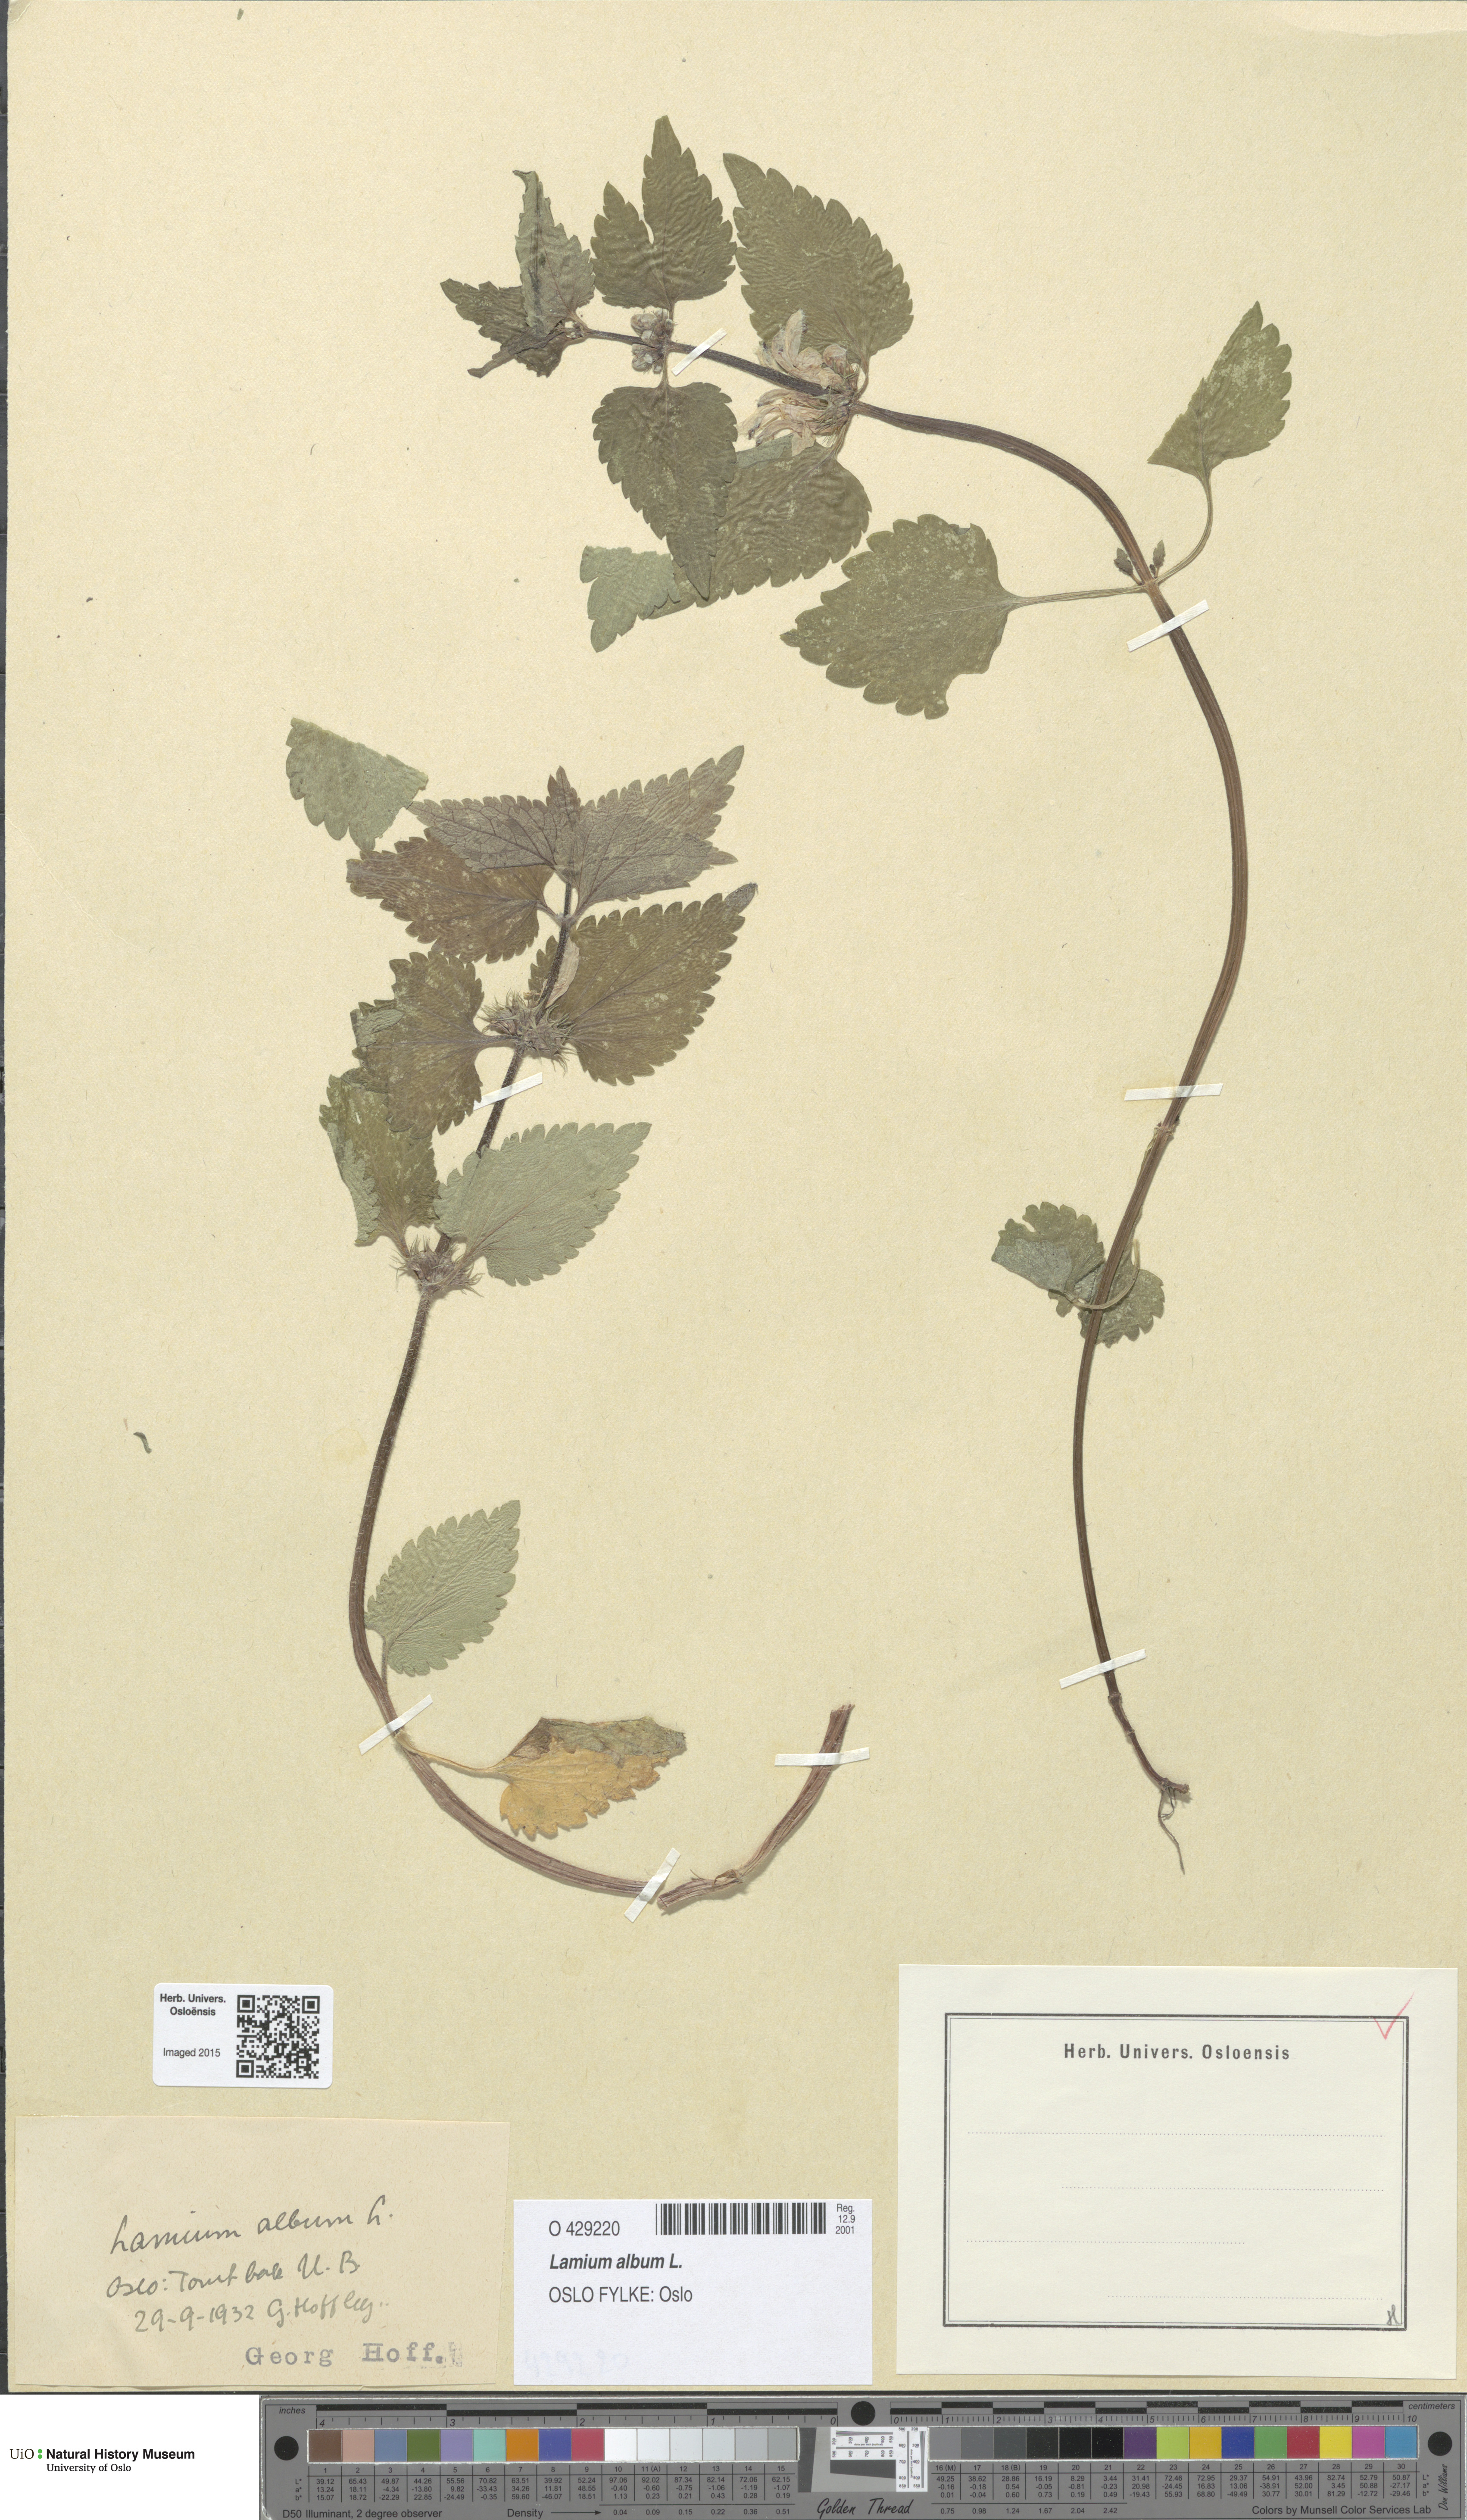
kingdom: Plantae
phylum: Tracheophyta
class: Magnoliopsida
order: Lamiales
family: Lamiaceae
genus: Lamium
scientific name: Lamium album
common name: White dead-nettle
